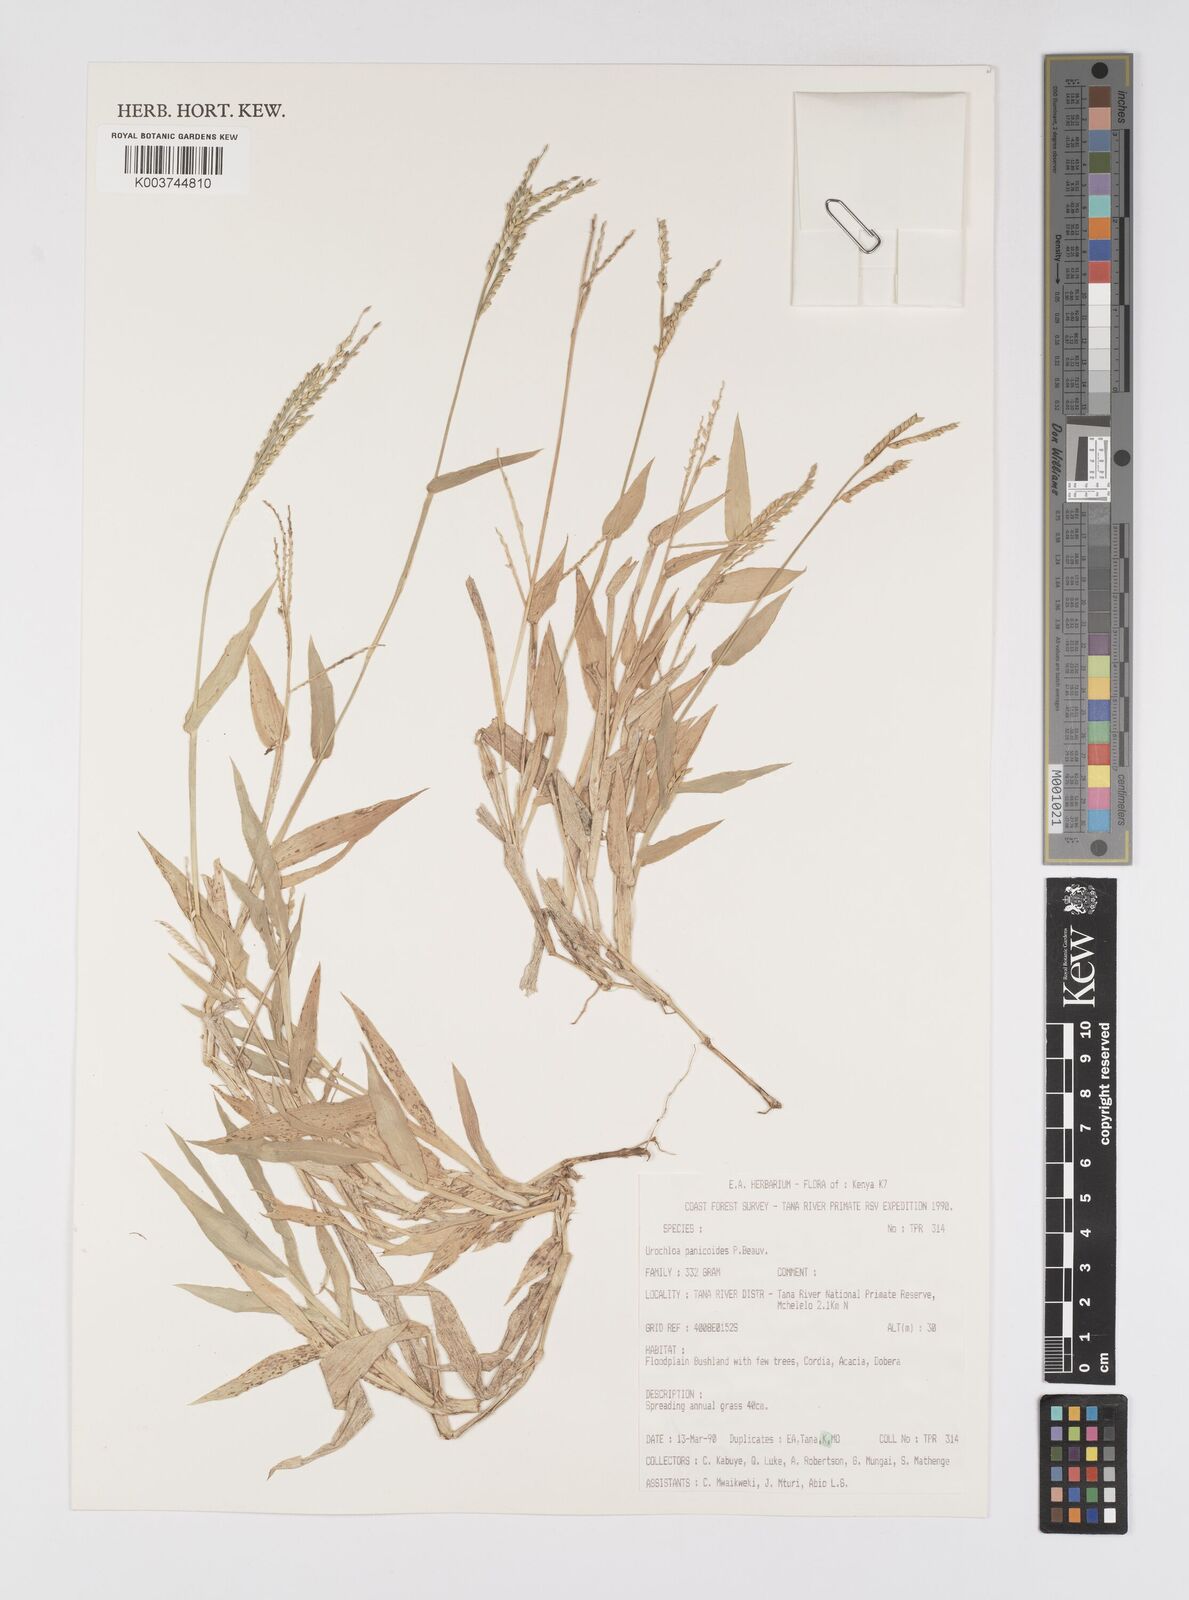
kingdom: Plantae
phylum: Tracheophyta
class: Liliopsida
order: Poales
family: Poaceae
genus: Urochloa
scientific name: Urochloa panicoides
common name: Sharp-flowered signal-grass
